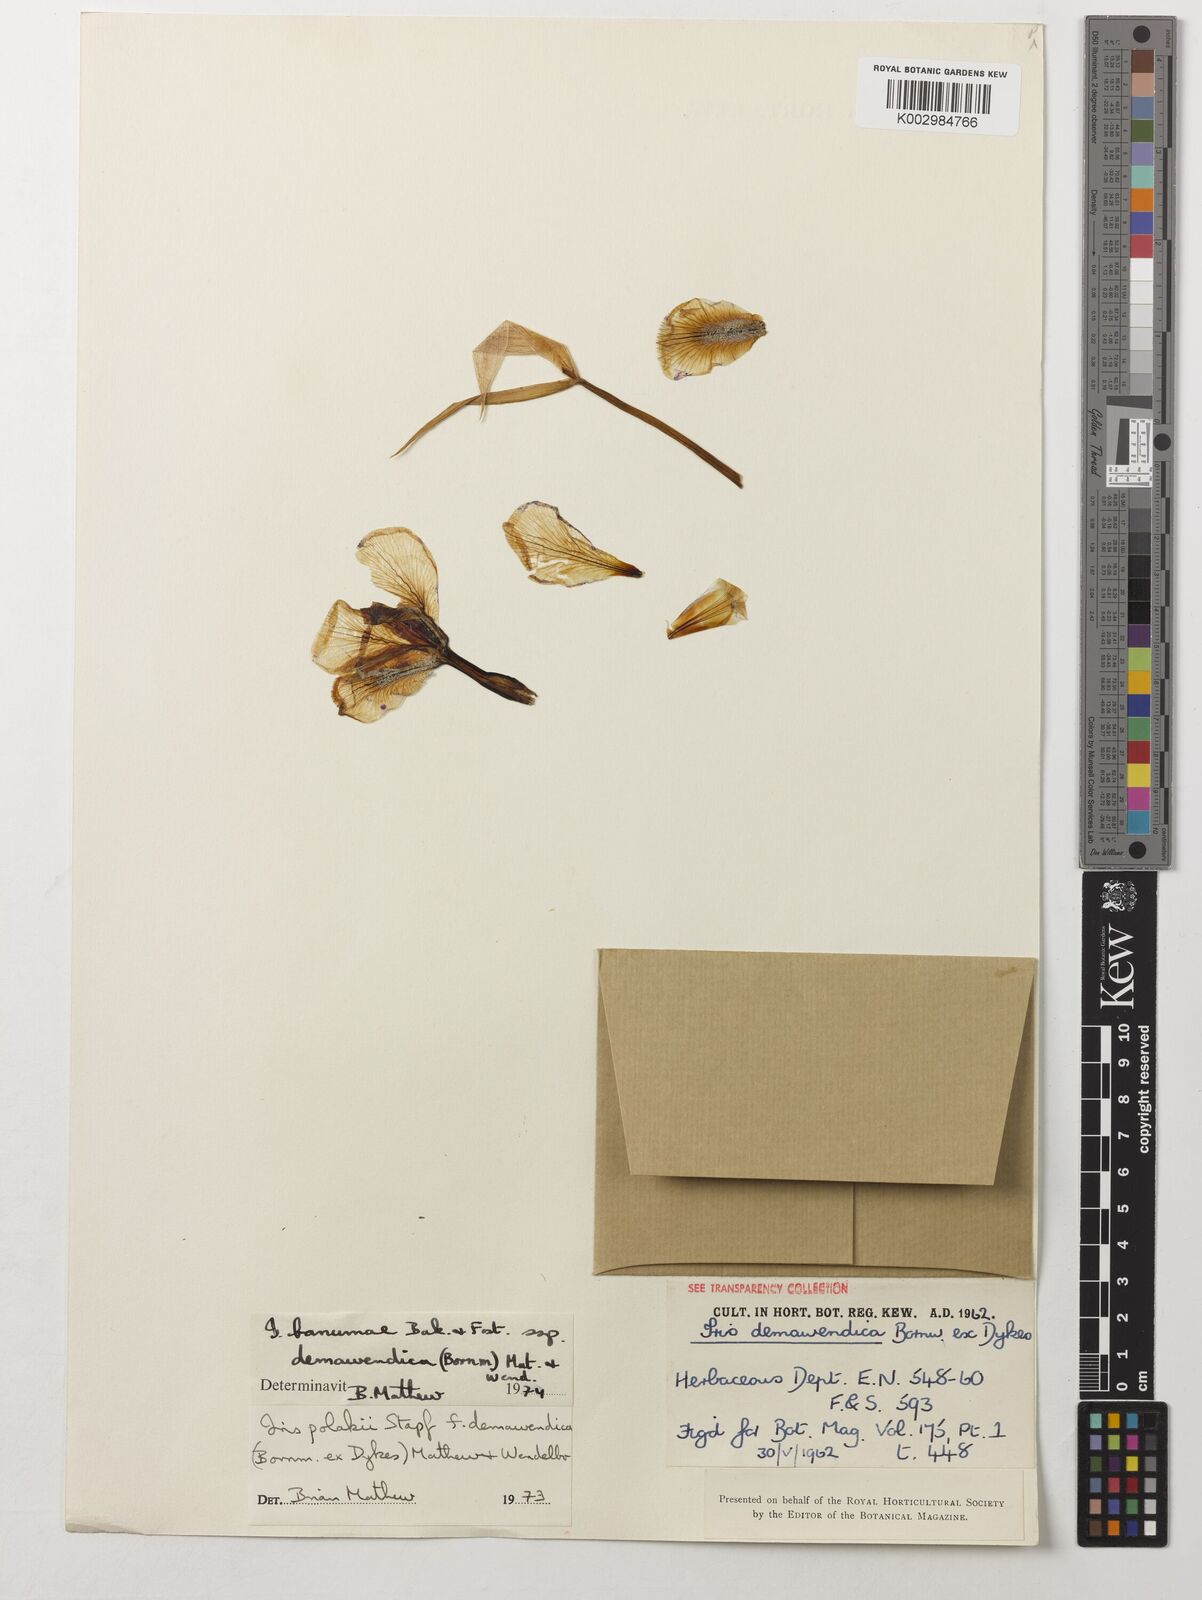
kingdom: Plantae
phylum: Tracheophyta
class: Liliopsida
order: Asparagales
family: Iridaceae
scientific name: Iridaceae
